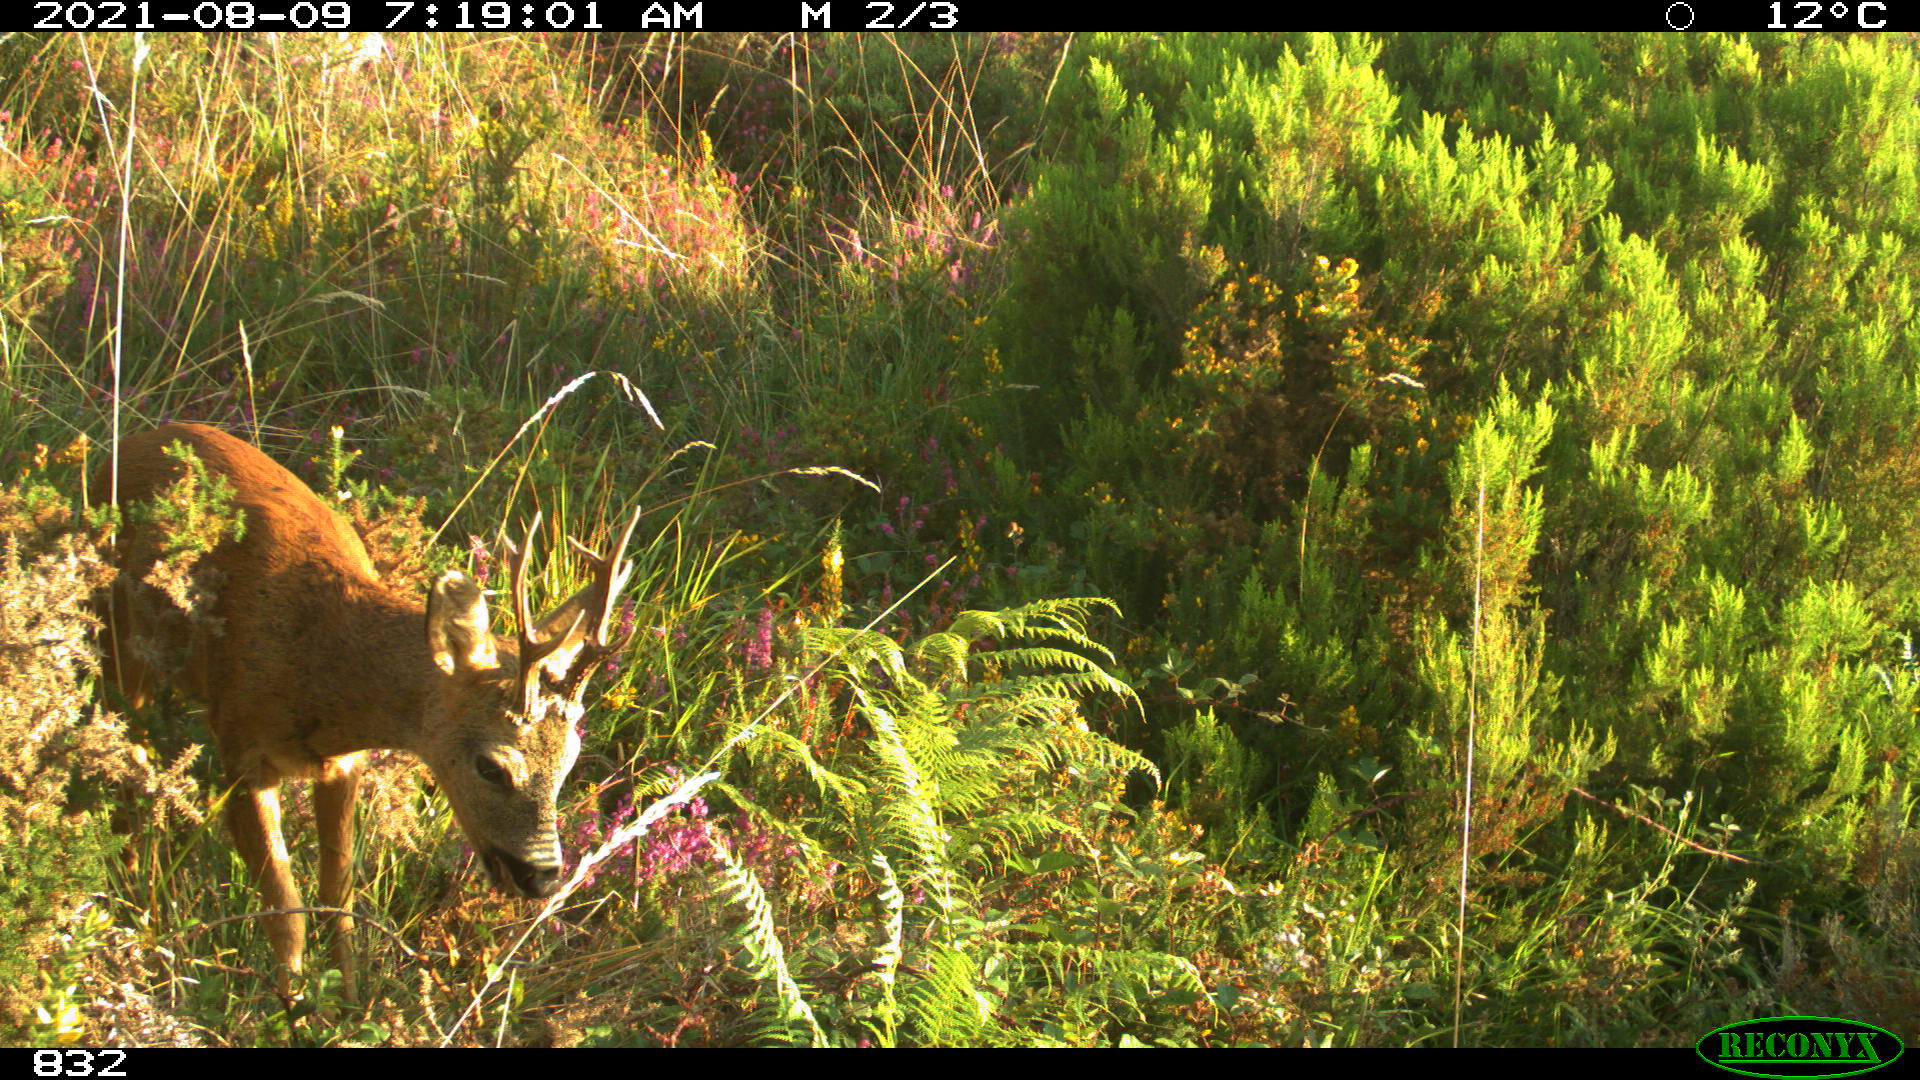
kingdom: Animalia
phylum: Chordata
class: Mammalia
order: Artiodactyla
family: Cervidae
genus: Capreolus
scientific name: Capreolus capreolus
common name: Western roe deer
